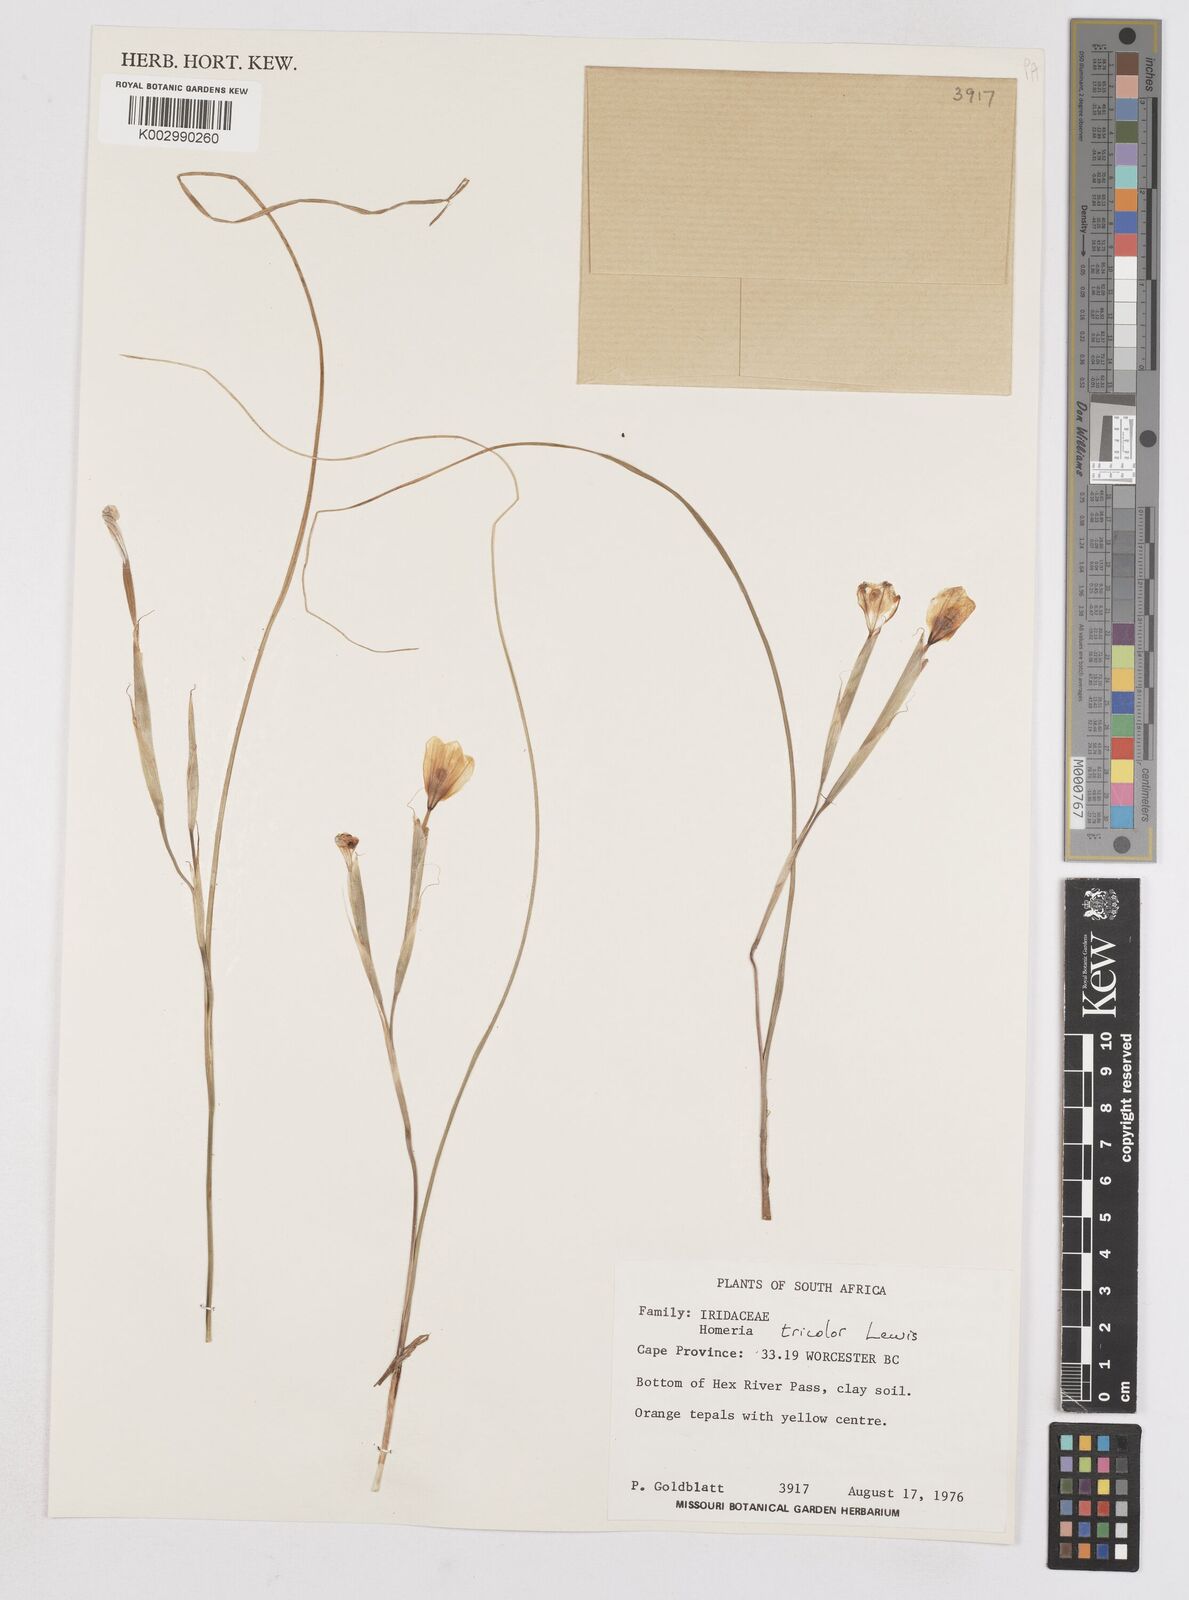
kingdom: Plantae
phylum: Tracheophyta
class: Liliopsida
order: Asparagales
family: Iridaceae
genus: Moraea
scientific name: Moraea
